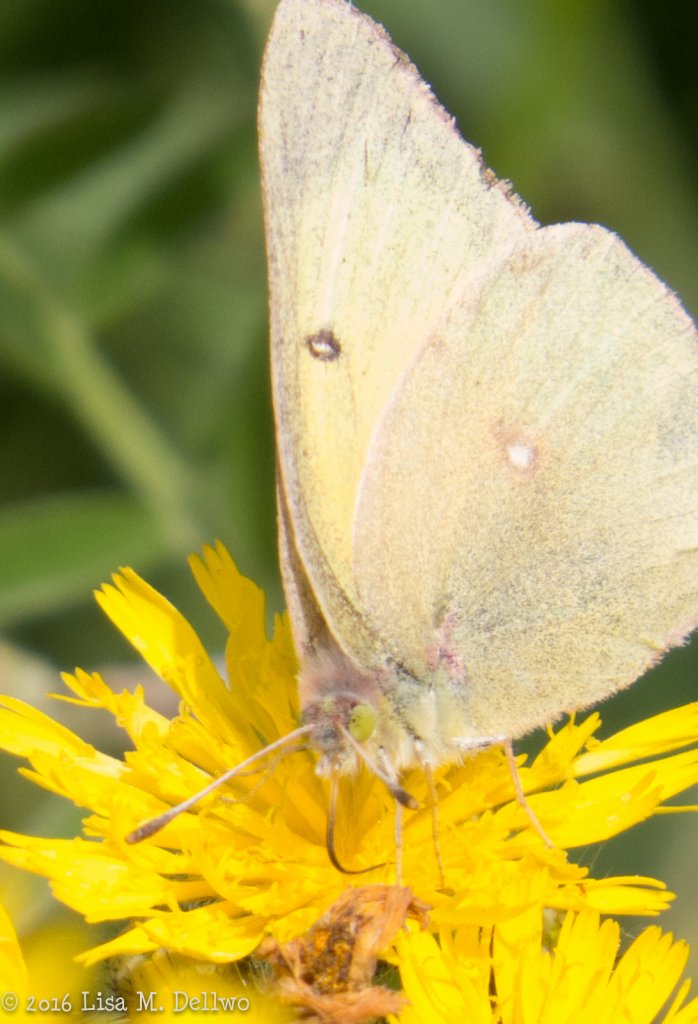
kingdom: Animalia
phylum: Arthropoda
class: Insecta
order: Lepidoptera
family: Pieridae
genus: Colias
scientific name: Colias philodice
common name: Clouded Sulphur
